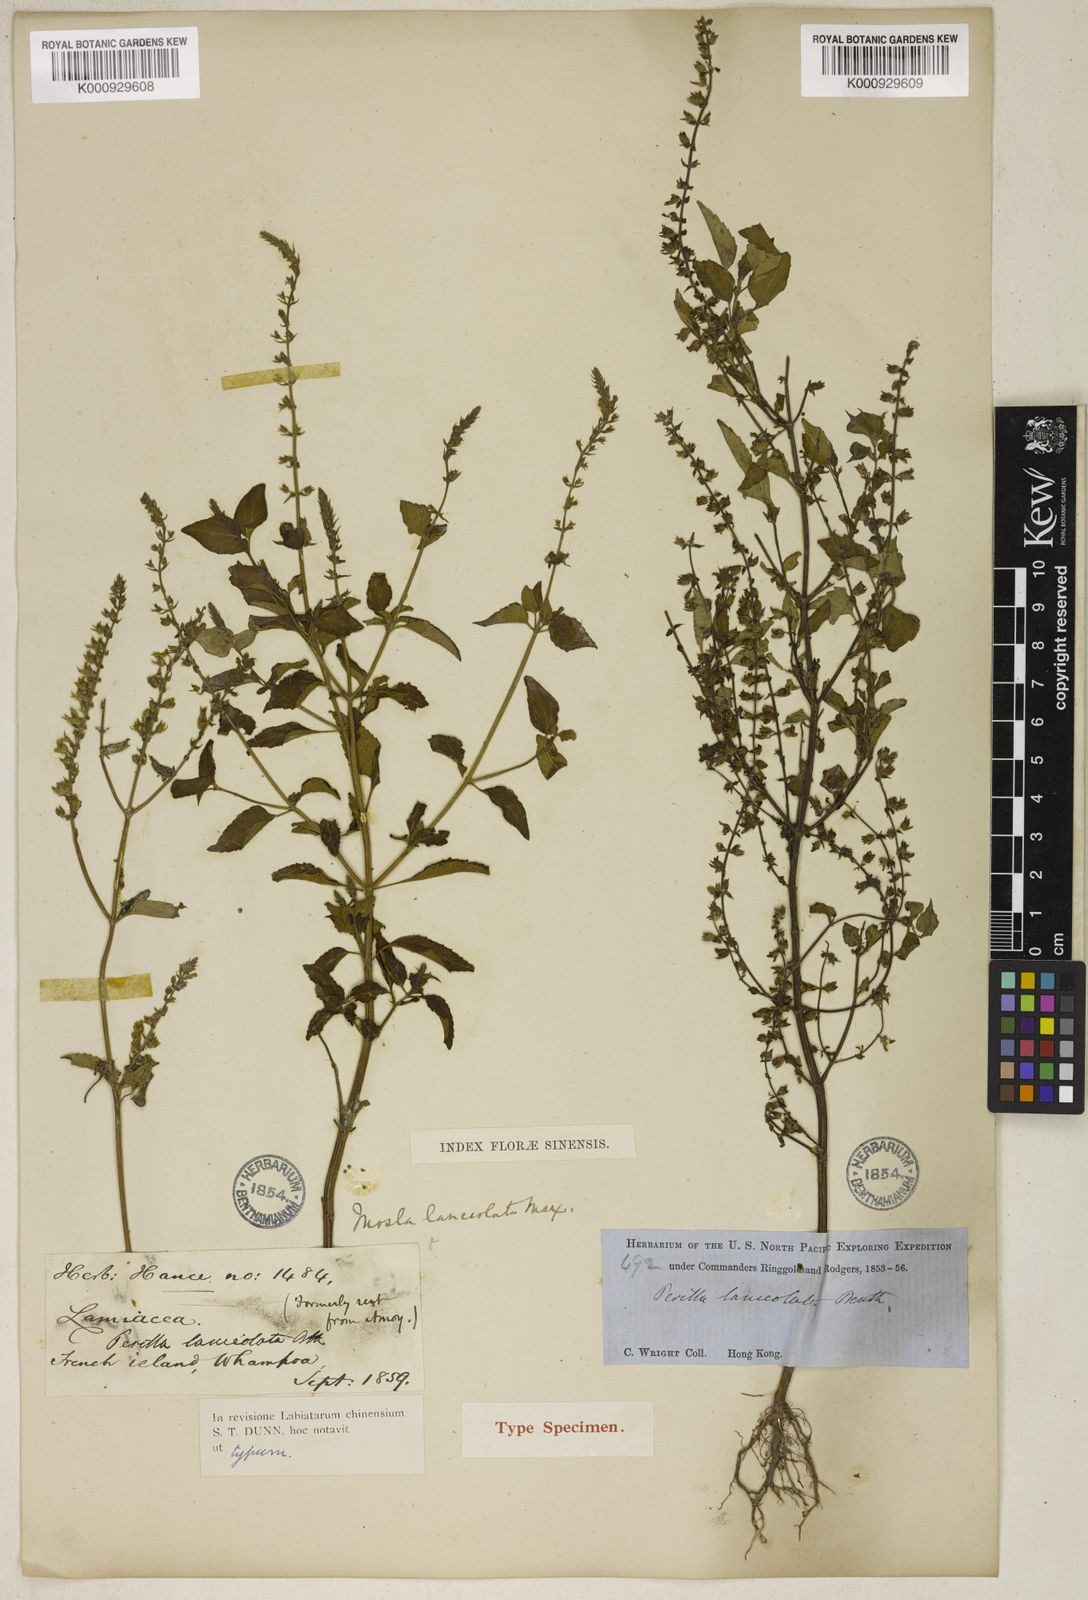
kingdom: Plantae
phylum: Tracheophyta
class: Magnoliopsida
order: Lamiales
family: Lamiaceae
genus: Mosla
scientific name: Mosla scabra
